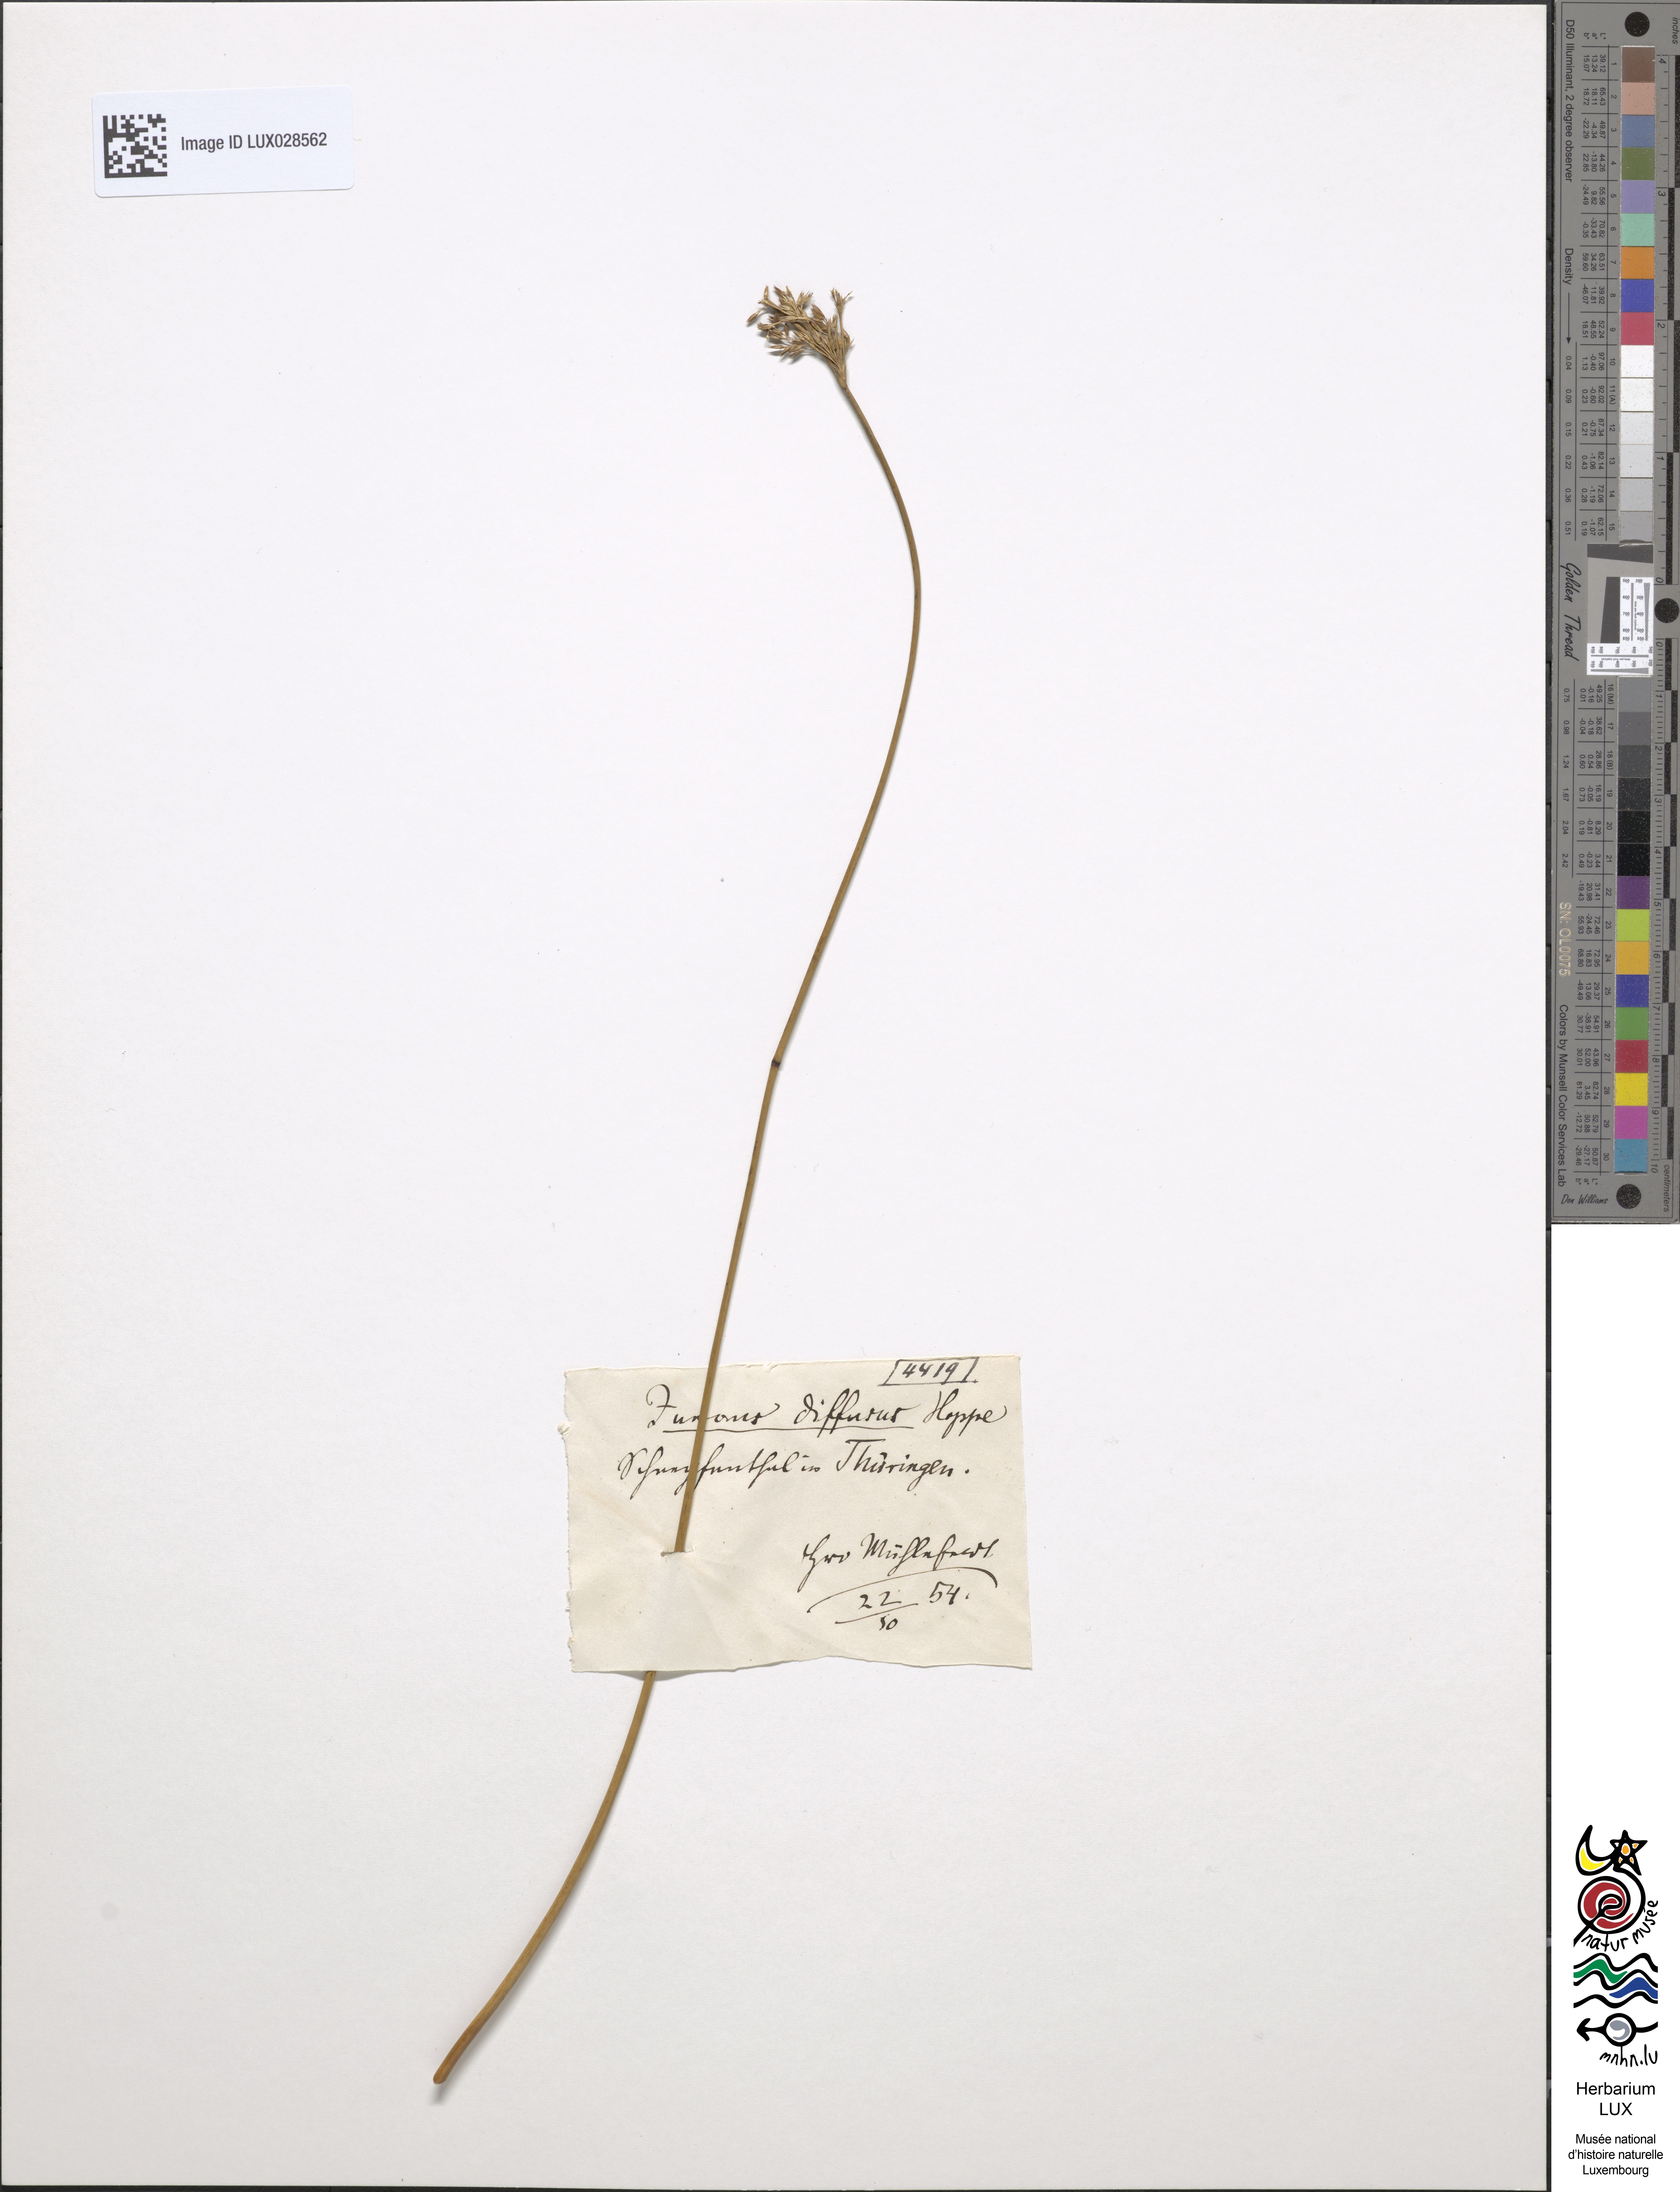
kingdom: Plantae
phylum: Tracheophyta
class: Liliopsida
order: Poales
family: Juncaceae
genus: Juncus
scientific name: Juncus diffusus
